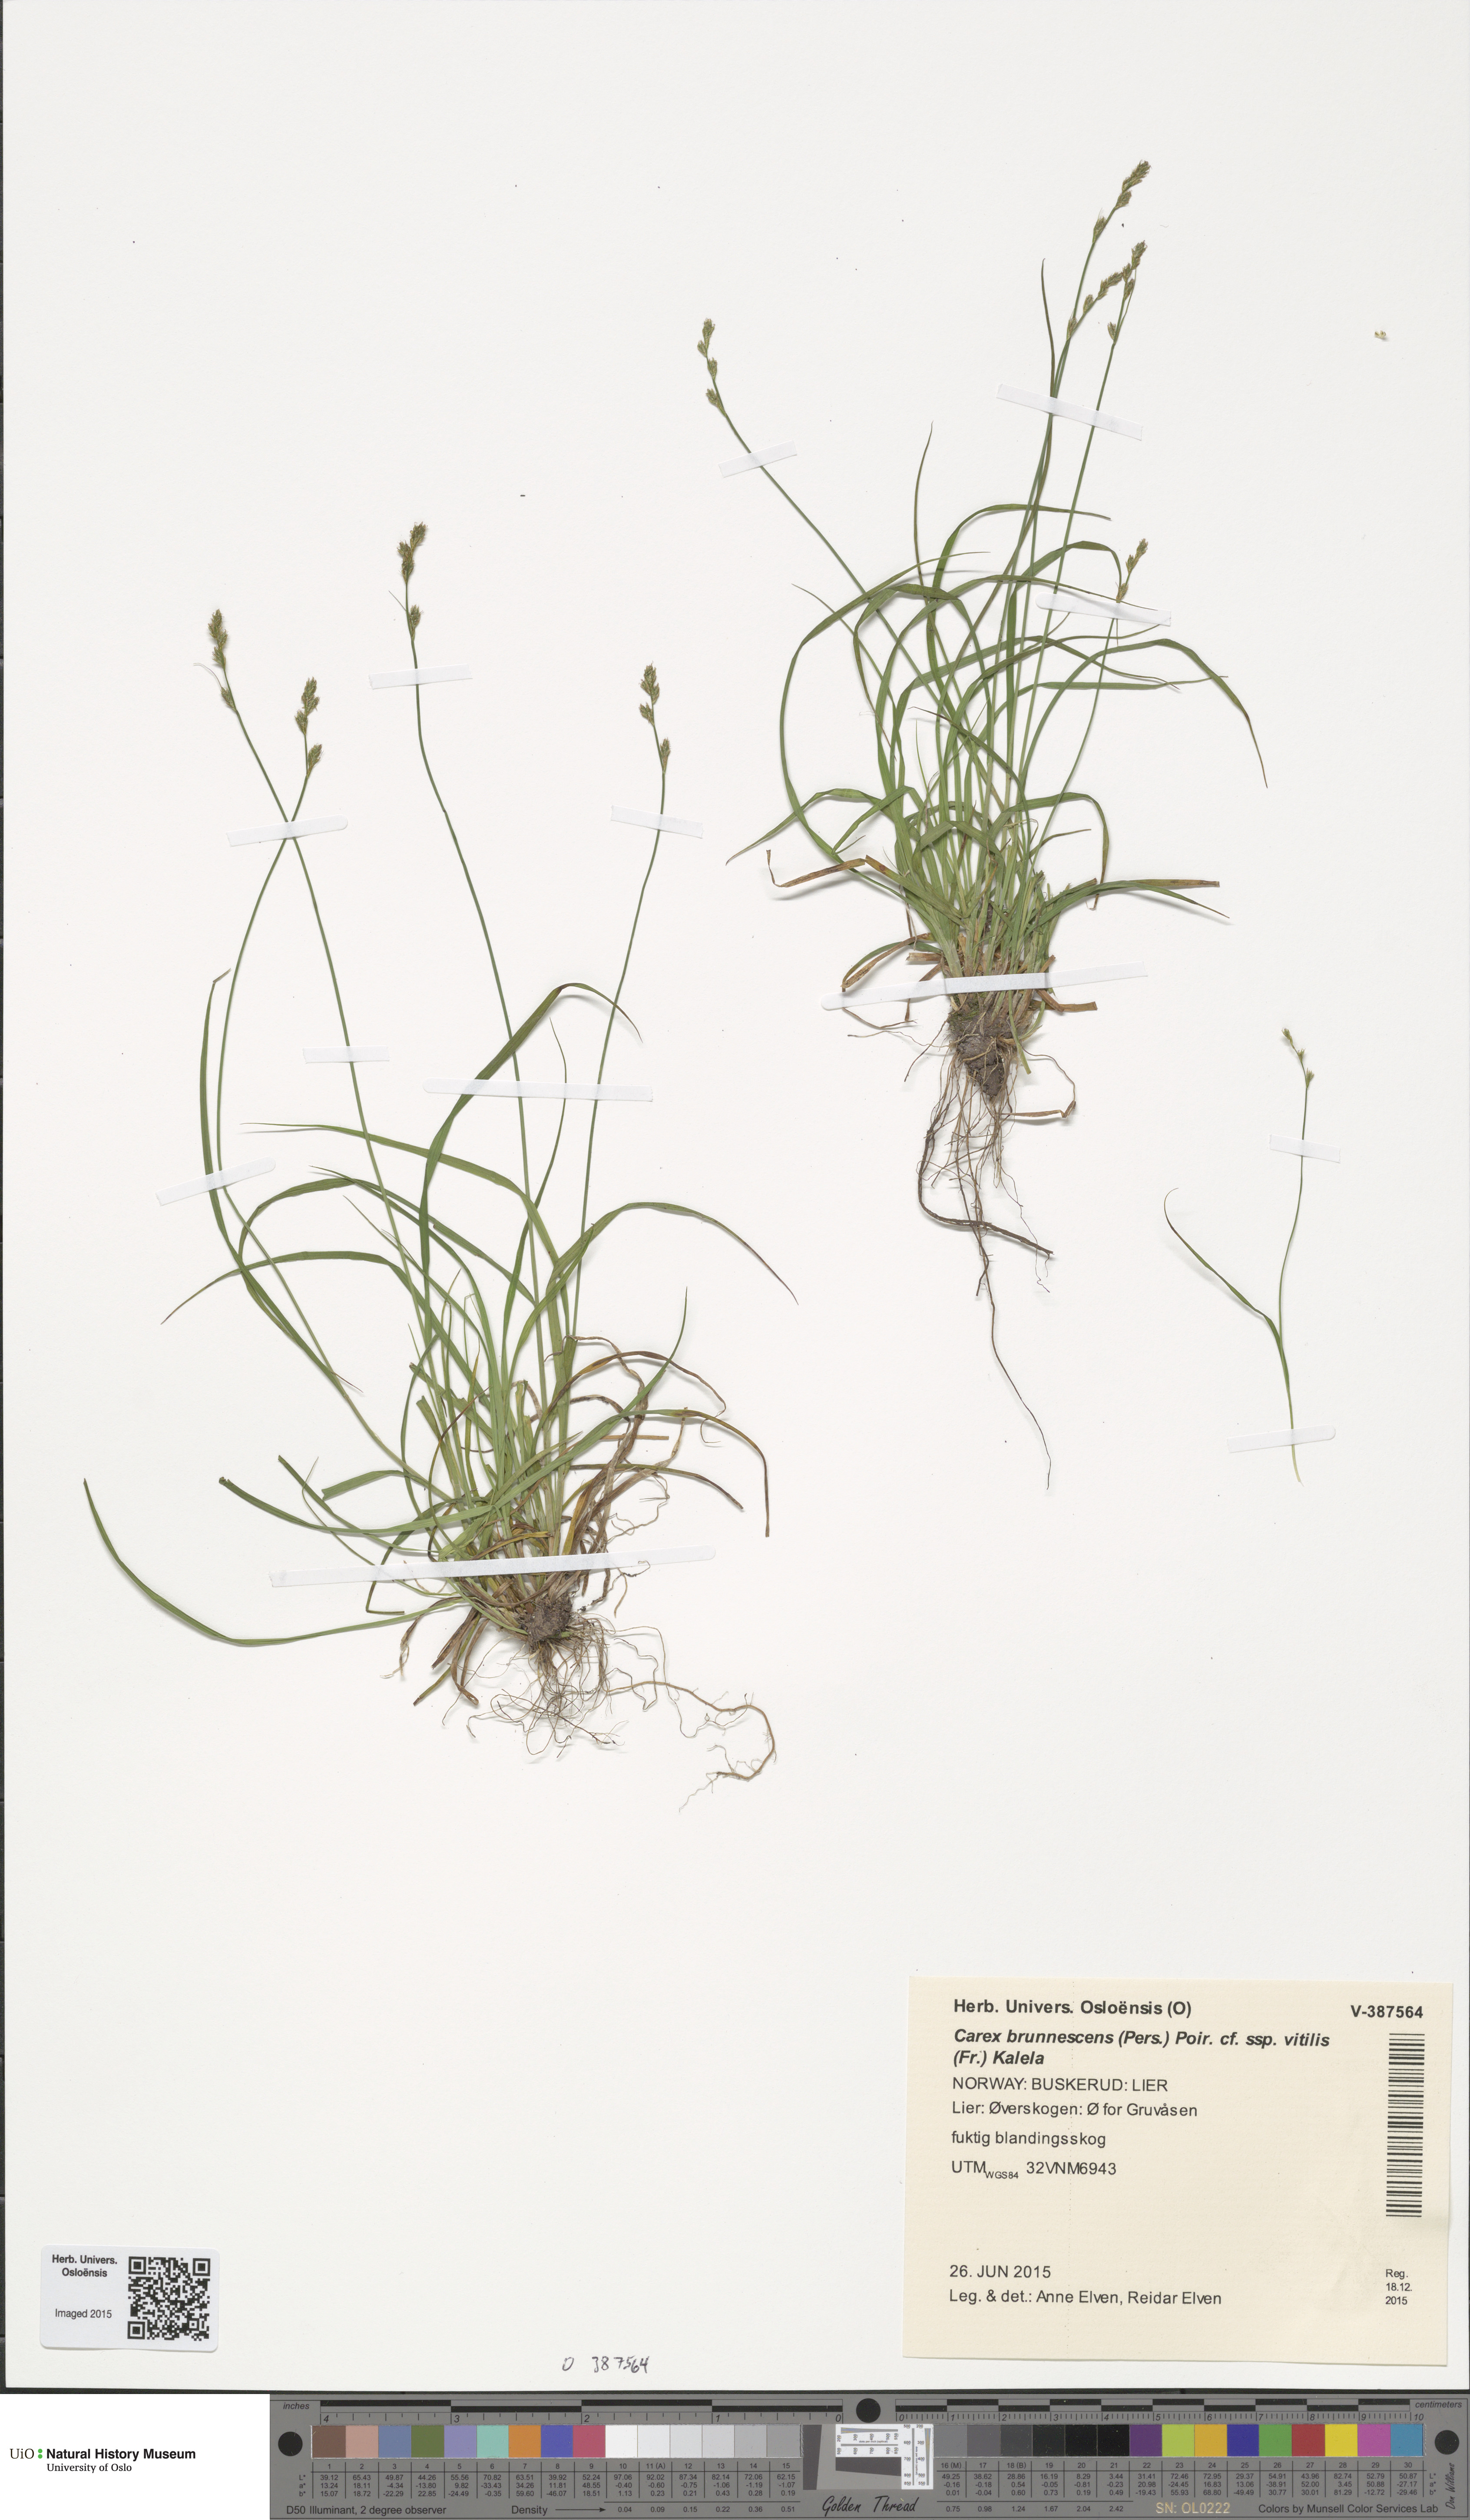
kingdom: Plantae
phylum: Tracheophyta
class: Liliopsida
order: Poales
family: Cyperaceae
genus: Carex
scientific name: Carex brunnescens
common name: Brown sedge
